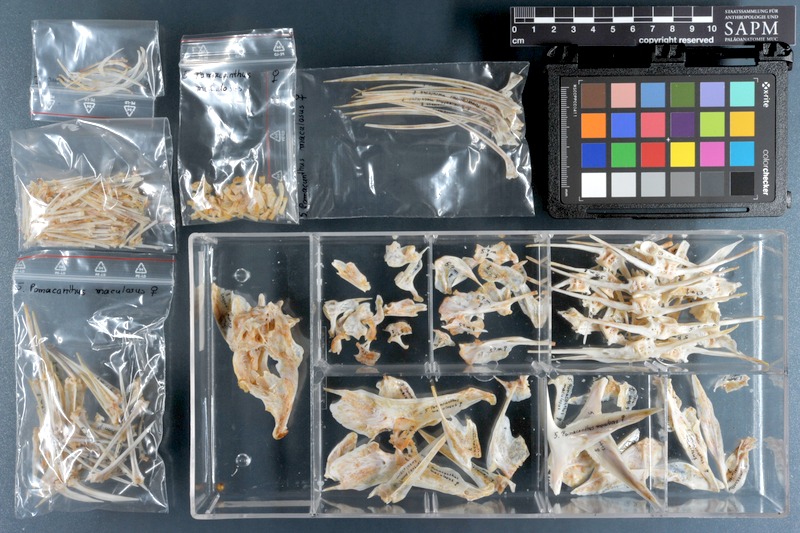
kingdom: Animalia
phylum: Chordata
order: Perciformes
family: Pomacanthidae
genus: Pomacanthus
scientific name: Pomacanthus maculosus
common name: Yellowbar angelfish
